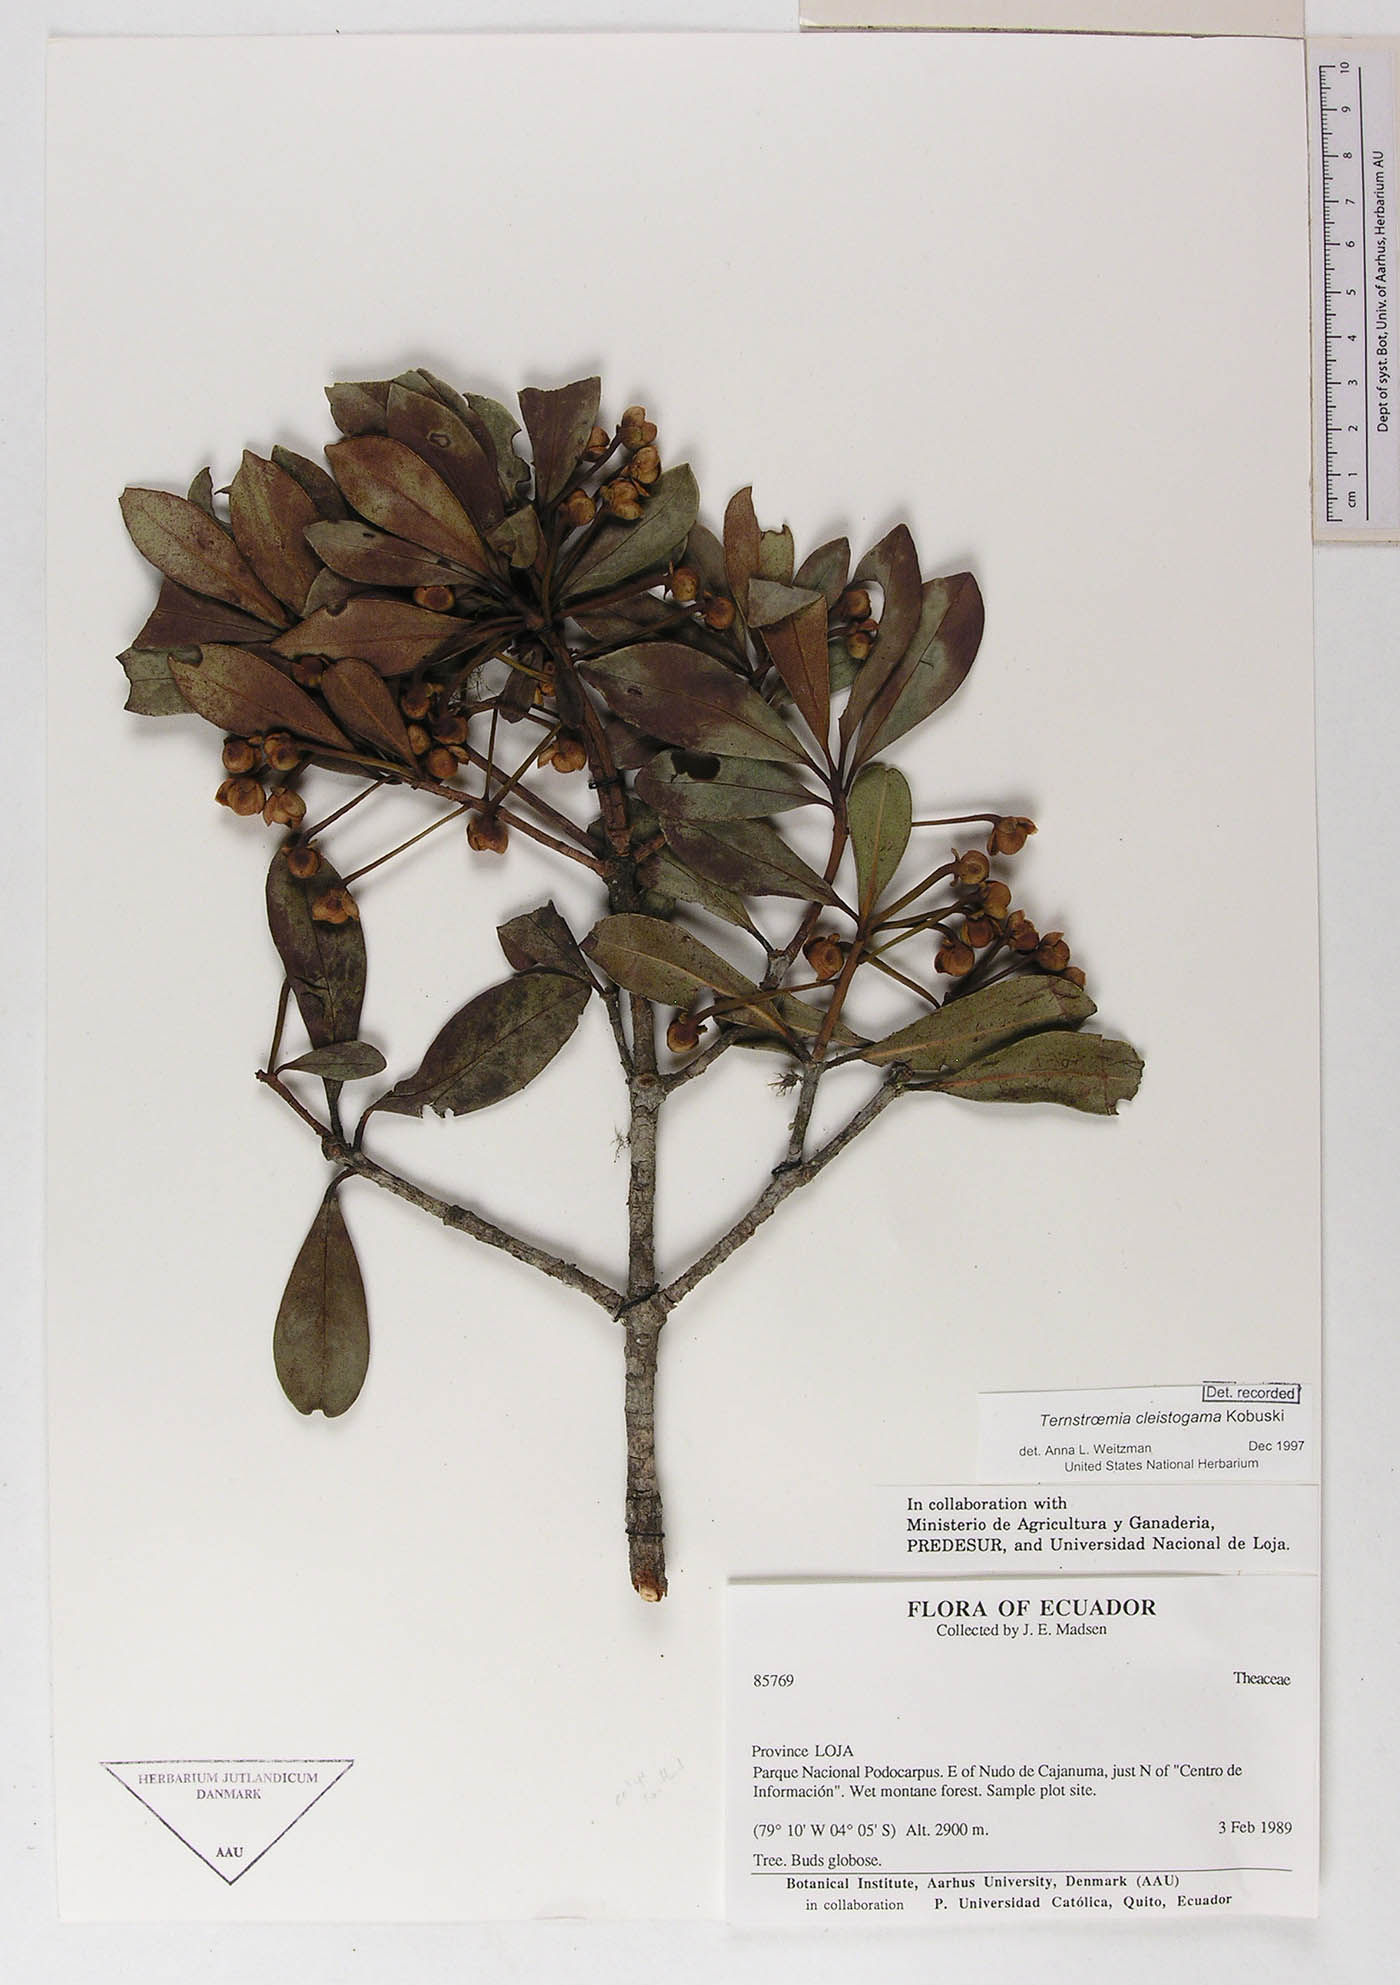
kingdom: Plantae
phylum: Tracheophyta
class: Magnoliopsida
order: Ericales
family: Pentaphylacaceae
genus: Ternstroemia
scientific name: Ternstroemia cleistogama
